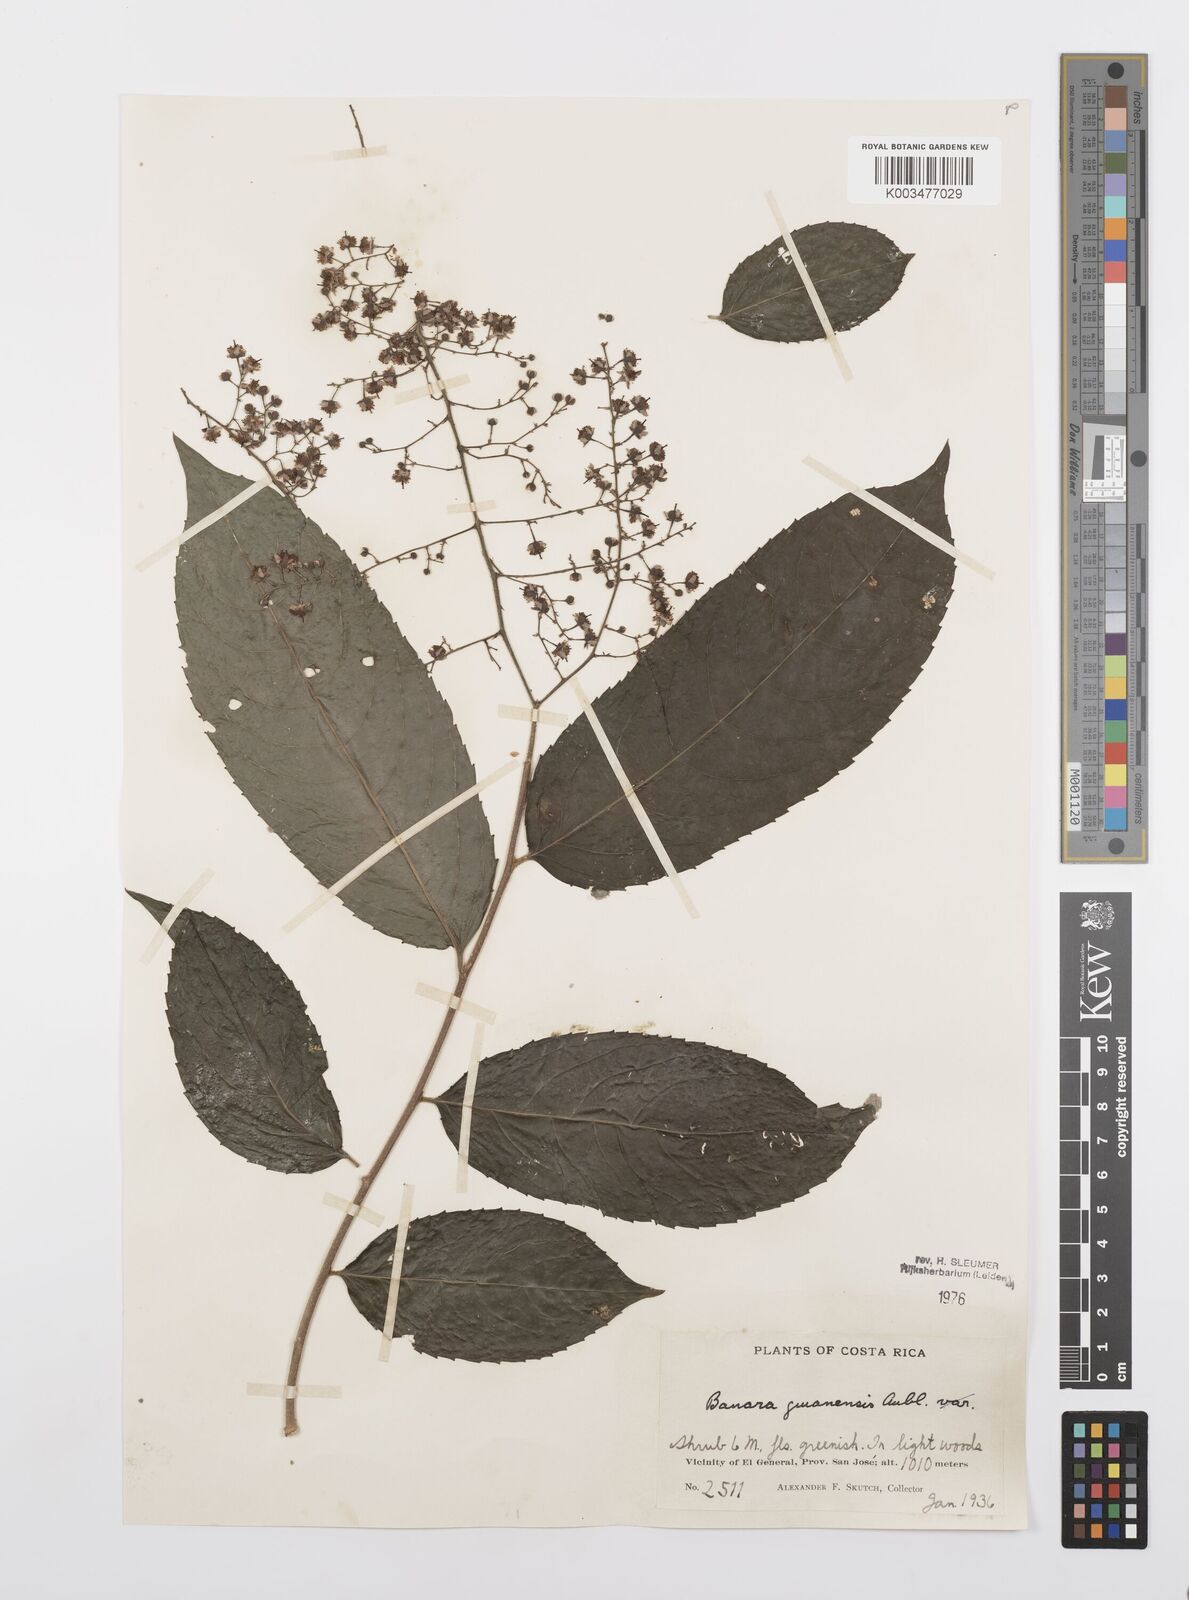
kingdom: Plantae
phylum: Tracheophyta
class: Magnoliopsida
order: Malpighiales
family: Salicaceae
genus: Banara
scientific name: Banara guianensis
